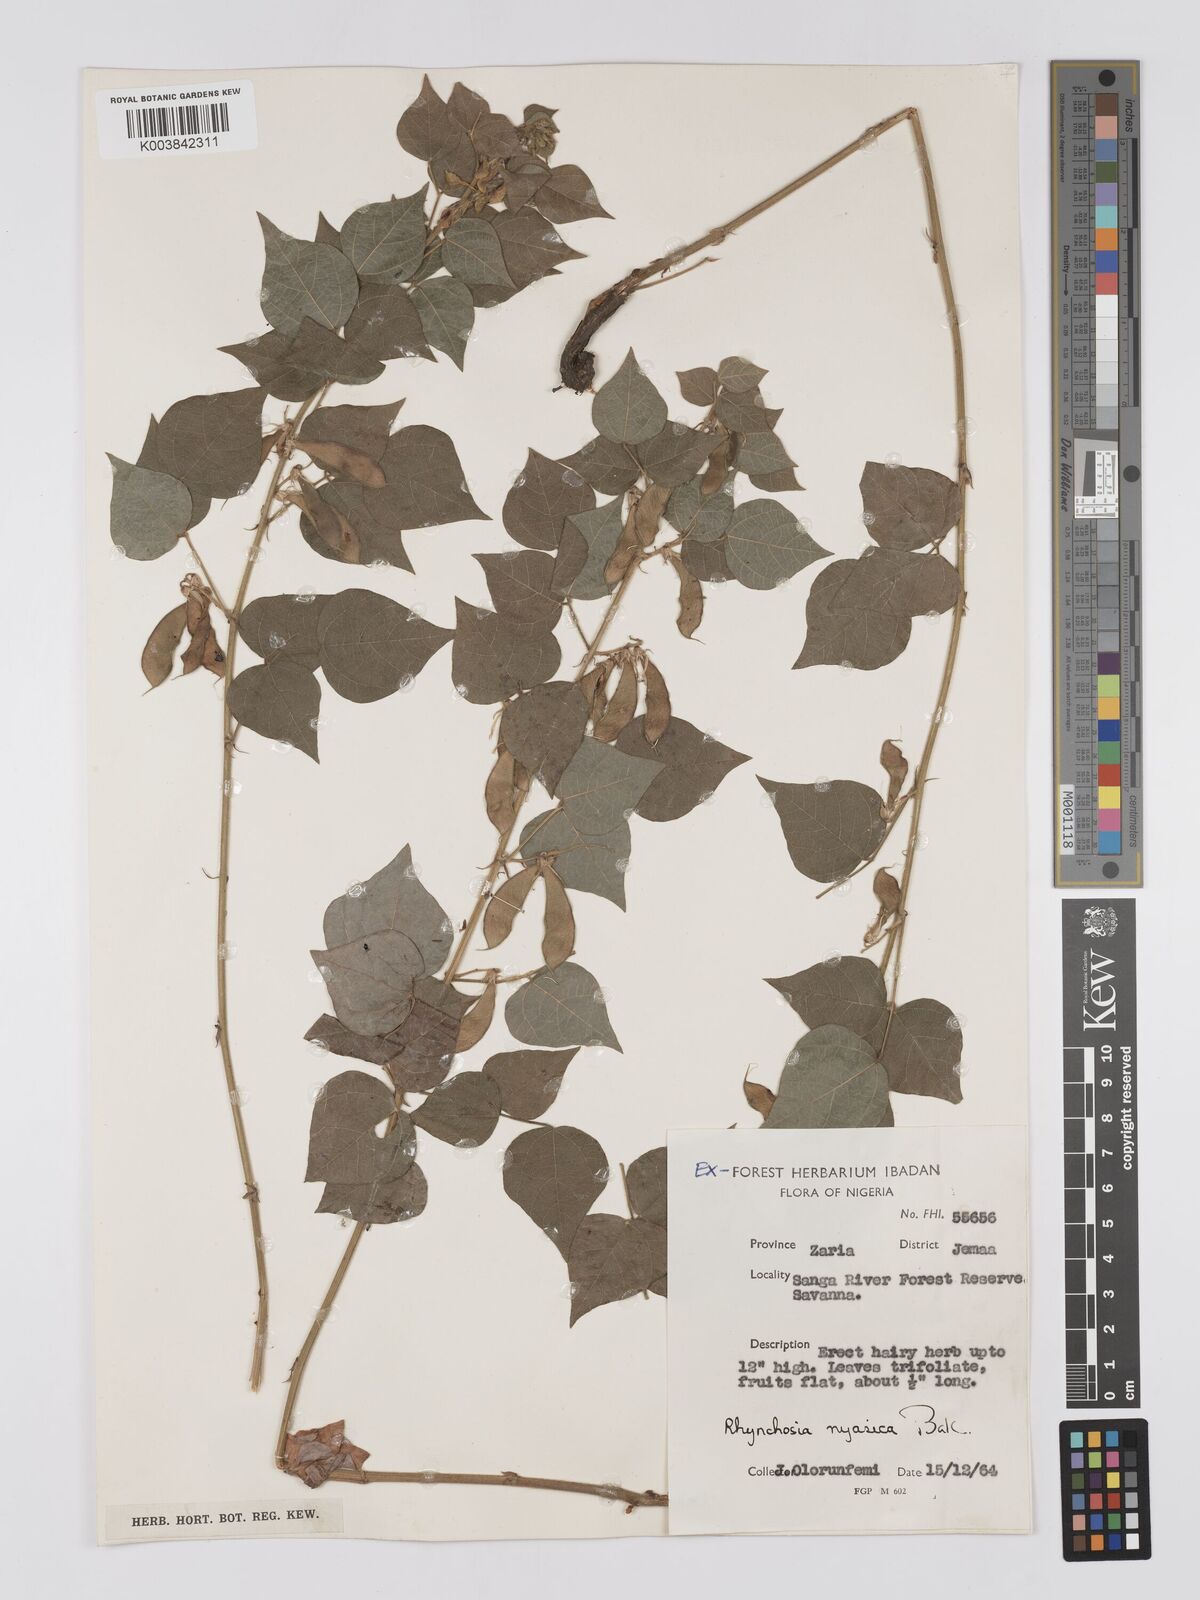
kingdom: Plantae
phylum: Tracheophyta
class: Magnoliopsida
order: Fabales
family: Fabaceae
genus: Rhynchosia
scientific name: Rhynchosia nyasica
